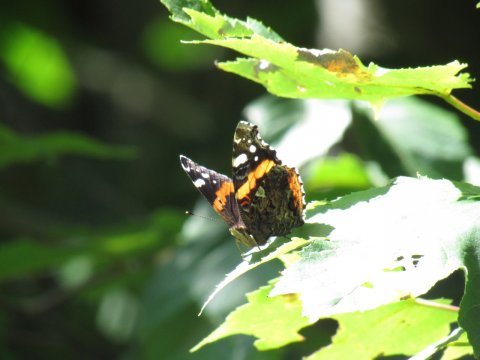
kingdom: Animalia
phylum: Arthropoda
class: Insecta
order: Lepidoptera
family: Nymphalidae
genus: Vanessa
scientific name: Vanessa atalanta
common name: Red Admiral
